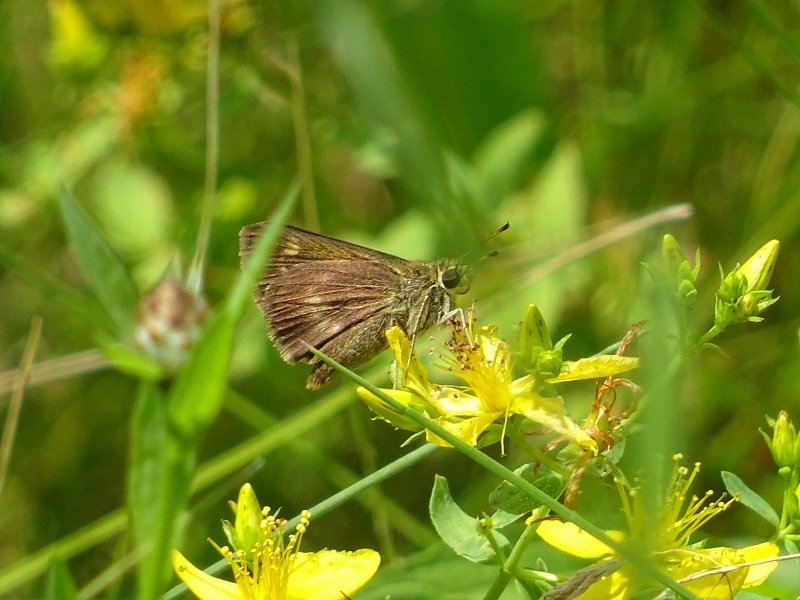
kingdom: Animalia
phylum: Arthropoda
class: Insecta
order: Lepidoptera
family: Hesperiidae
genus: Polites
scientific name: Polites egeremet
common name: Northern Broken-Dash
